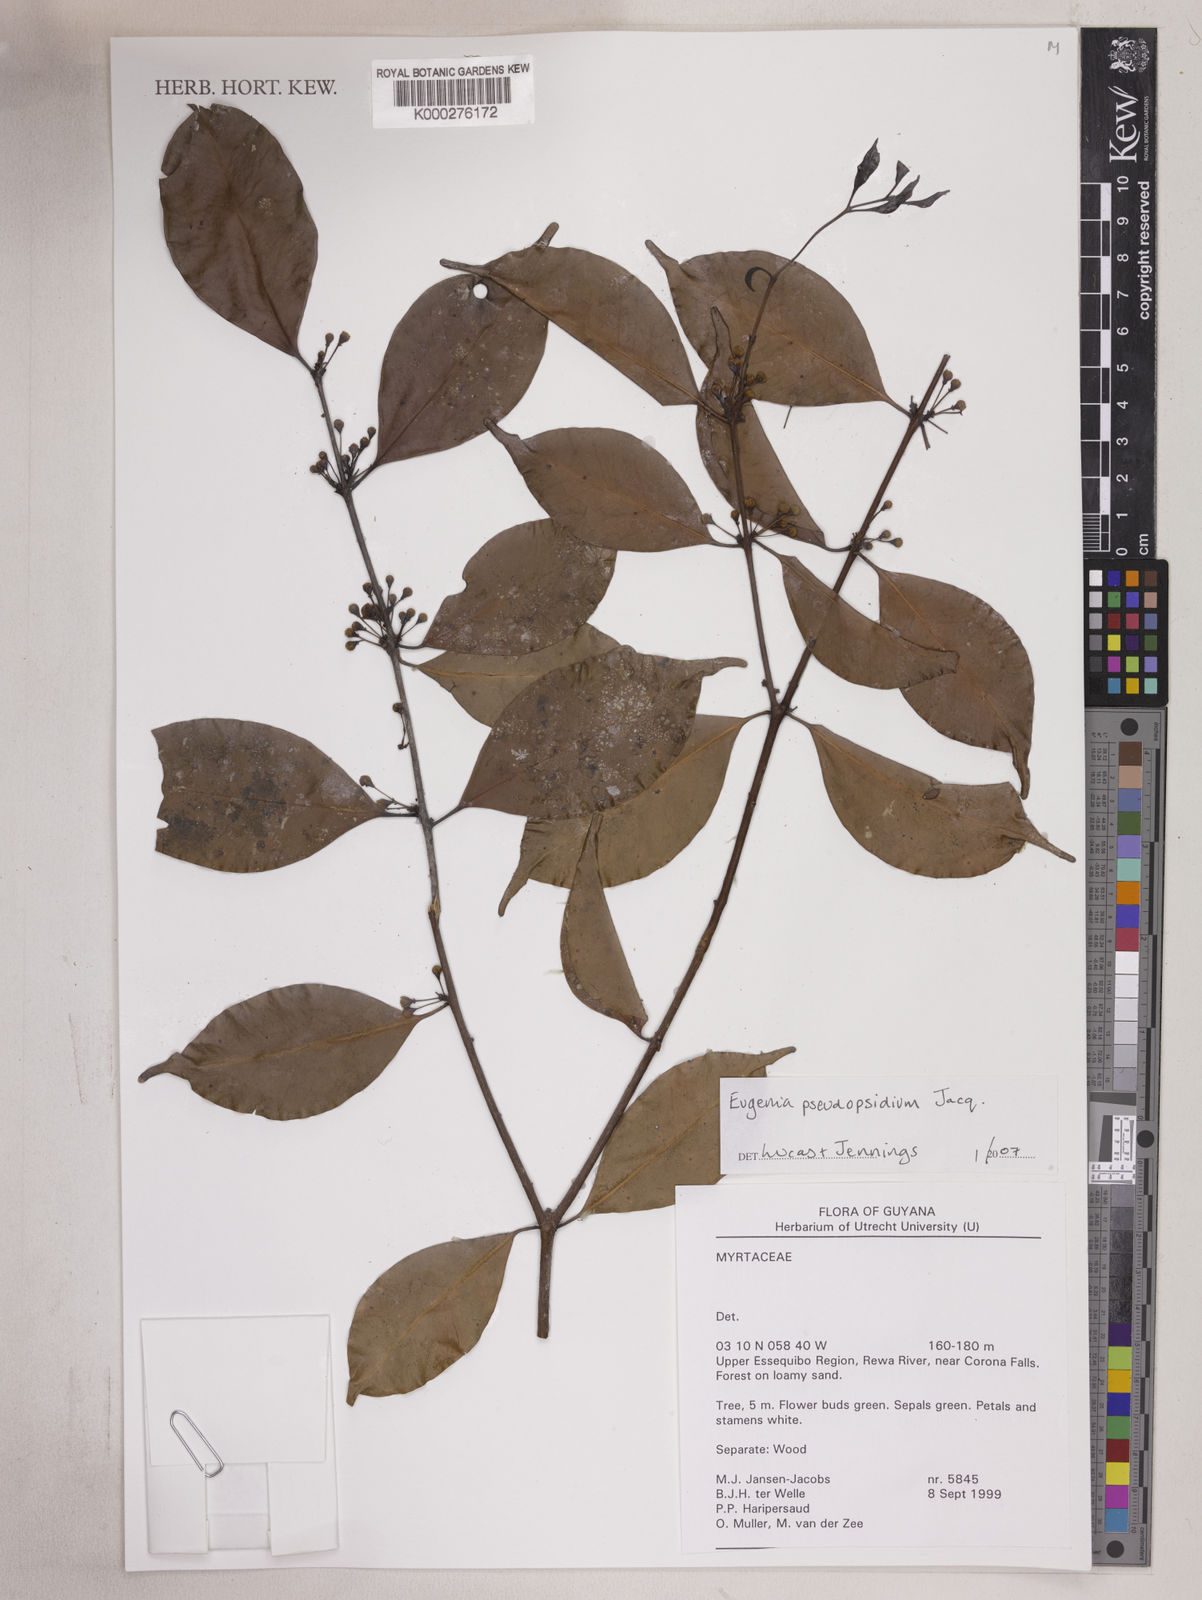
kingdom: Plantae
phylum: Tracheophyta
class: Magnoliopsida
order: Myrtales
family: Myrtaceae
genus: Eugenia
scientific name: Eugenia pseudopsidium
